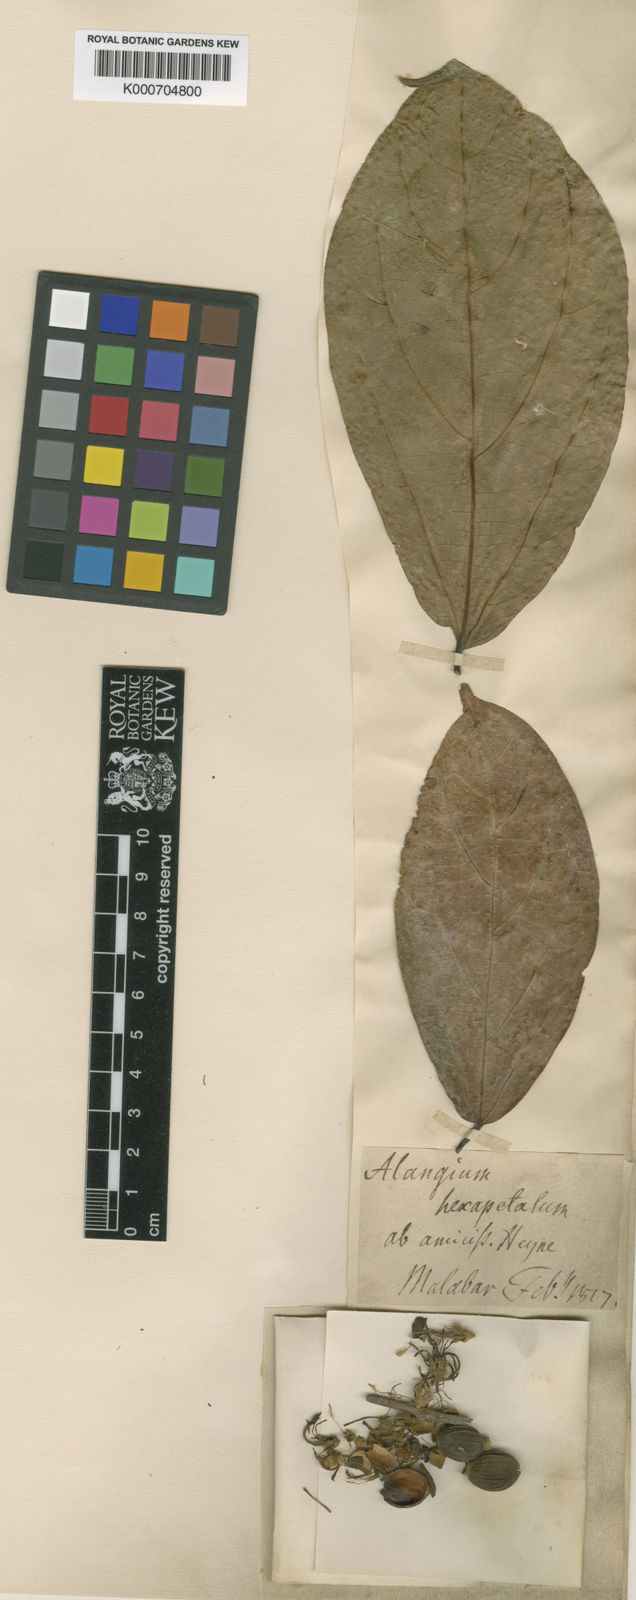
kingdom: Plantae
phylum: Tracheophyta
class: Magnoliopsida
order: Cornales
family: Cornaceae
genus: Alangium
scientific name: Alangium salviifolium
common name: Sage-leaf alangium
